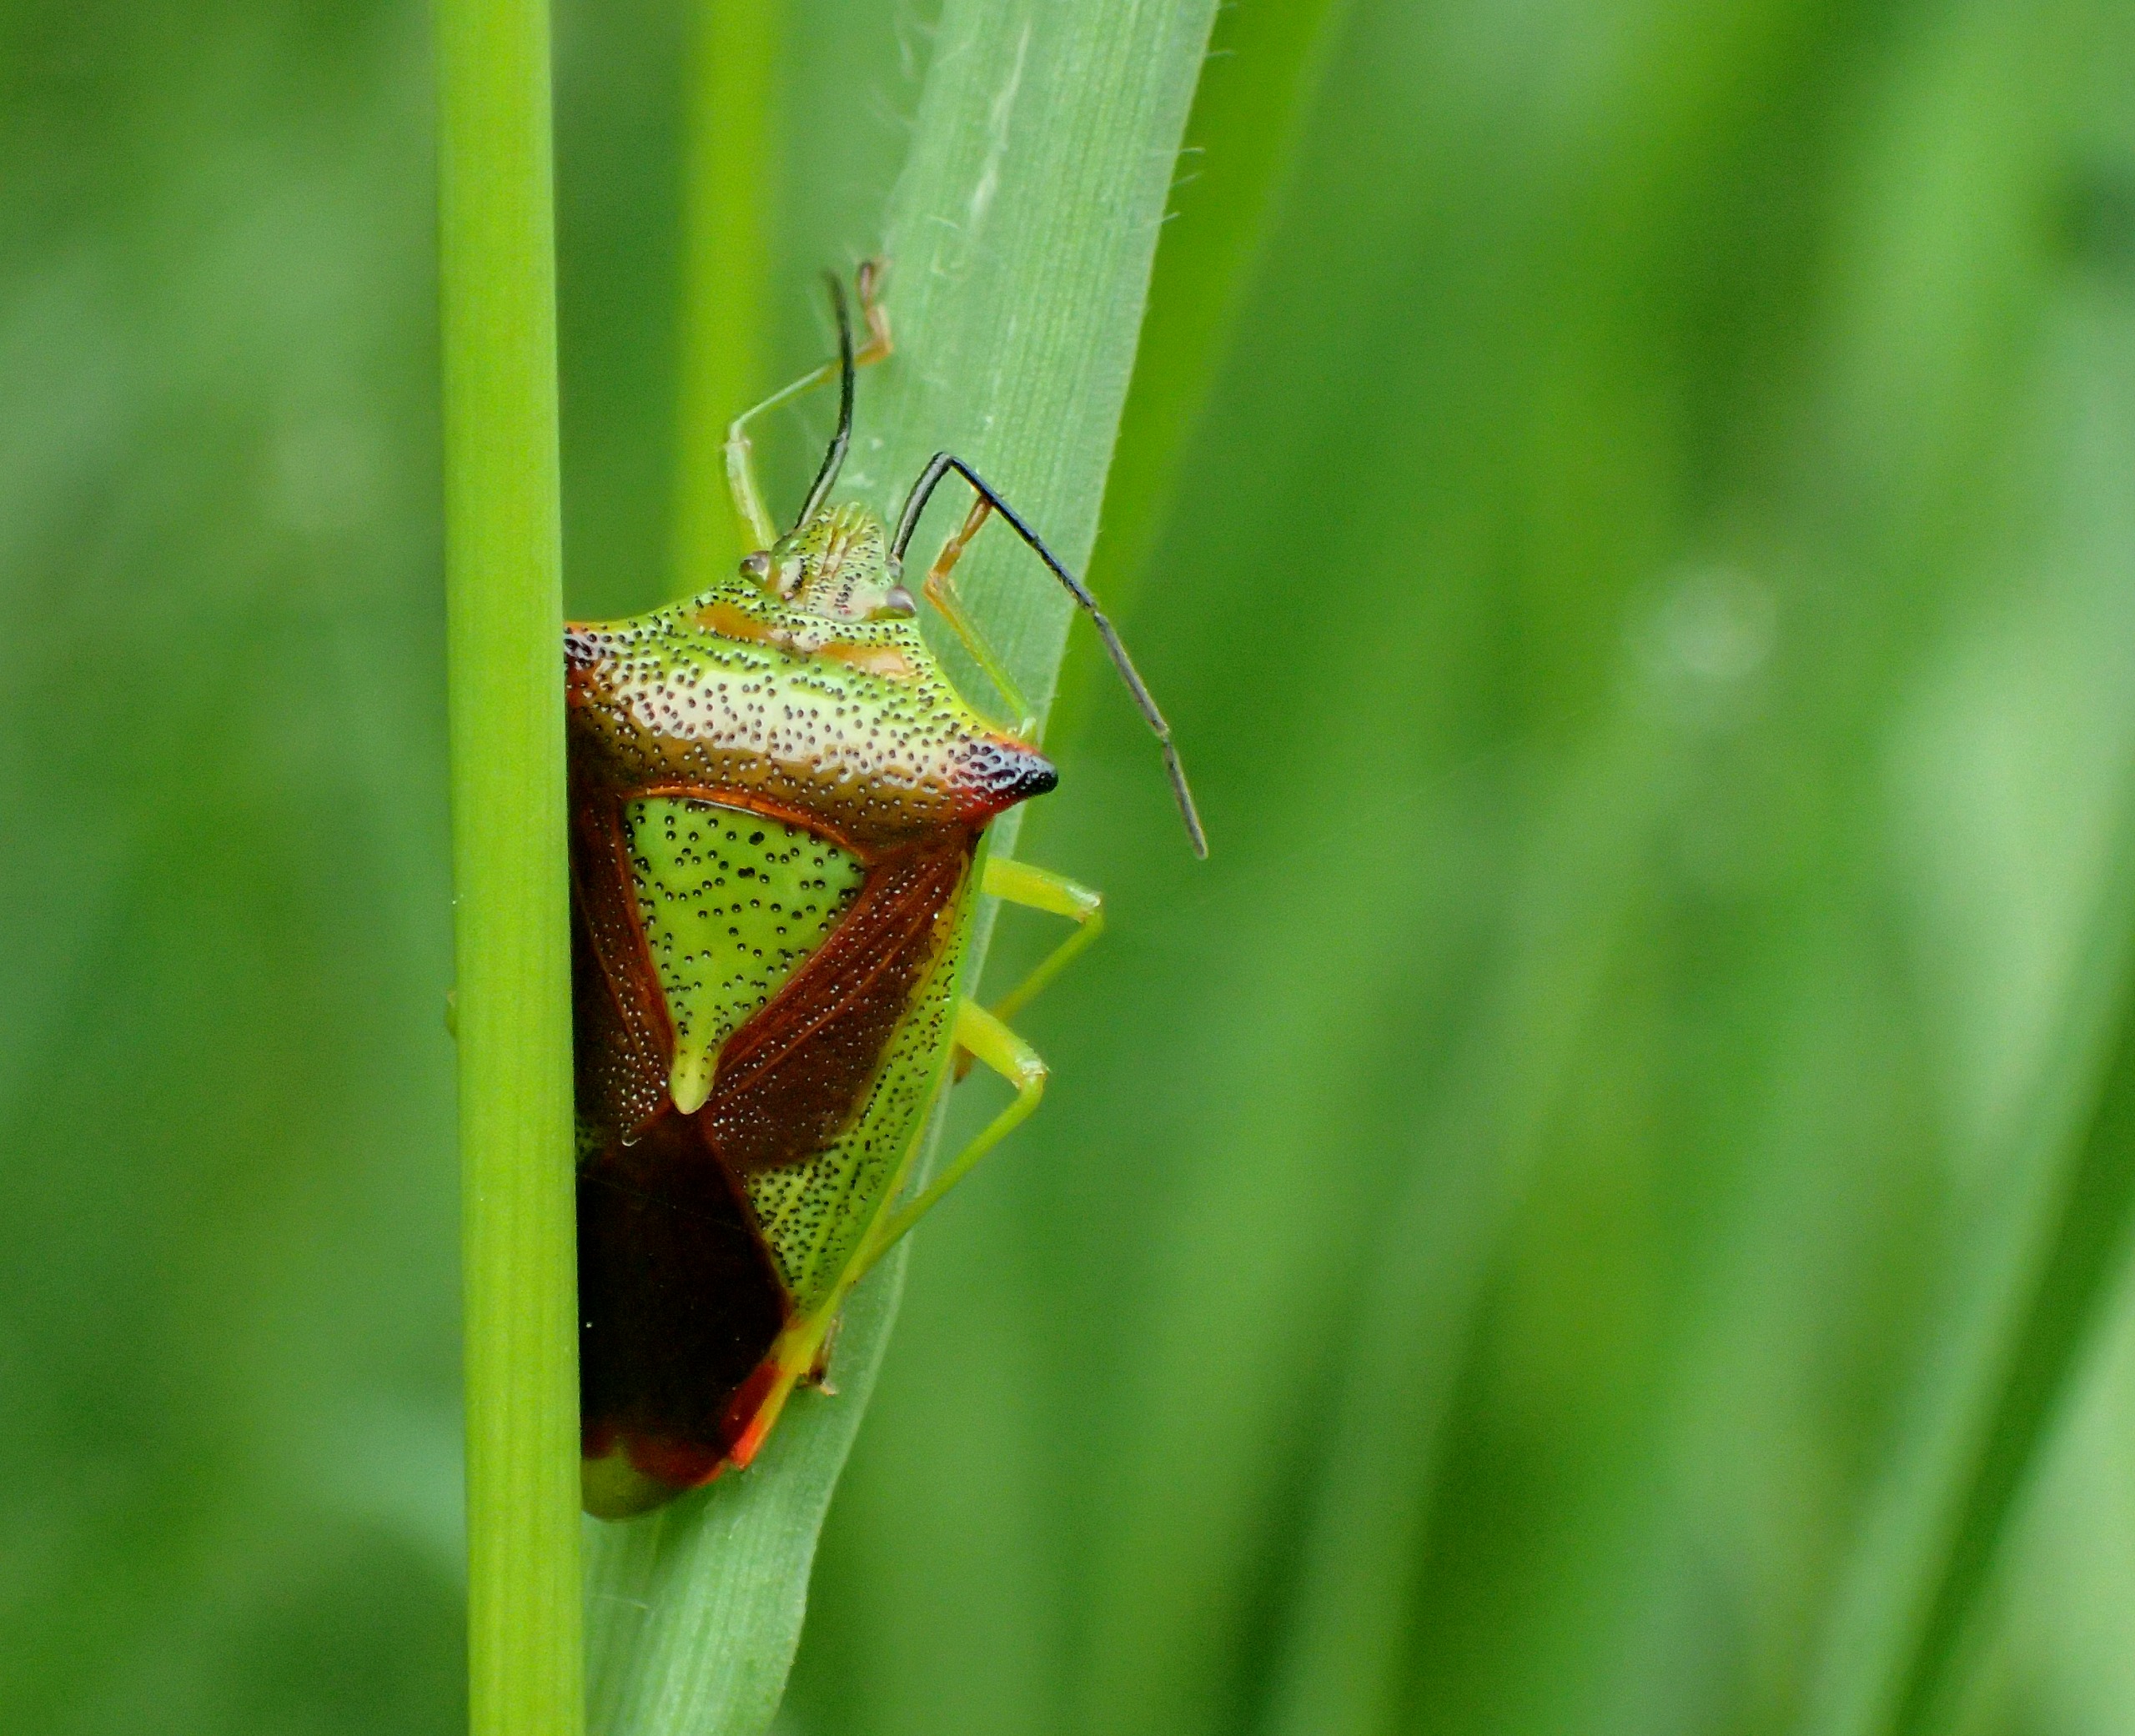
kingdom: Animalia
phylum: Arthropoda
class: Insecta
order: Hemiptera
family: Acanthosomatidae
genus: Acanthosoma
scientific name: Acanthosoma haemorrhoidale
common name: Stor løvtæge
